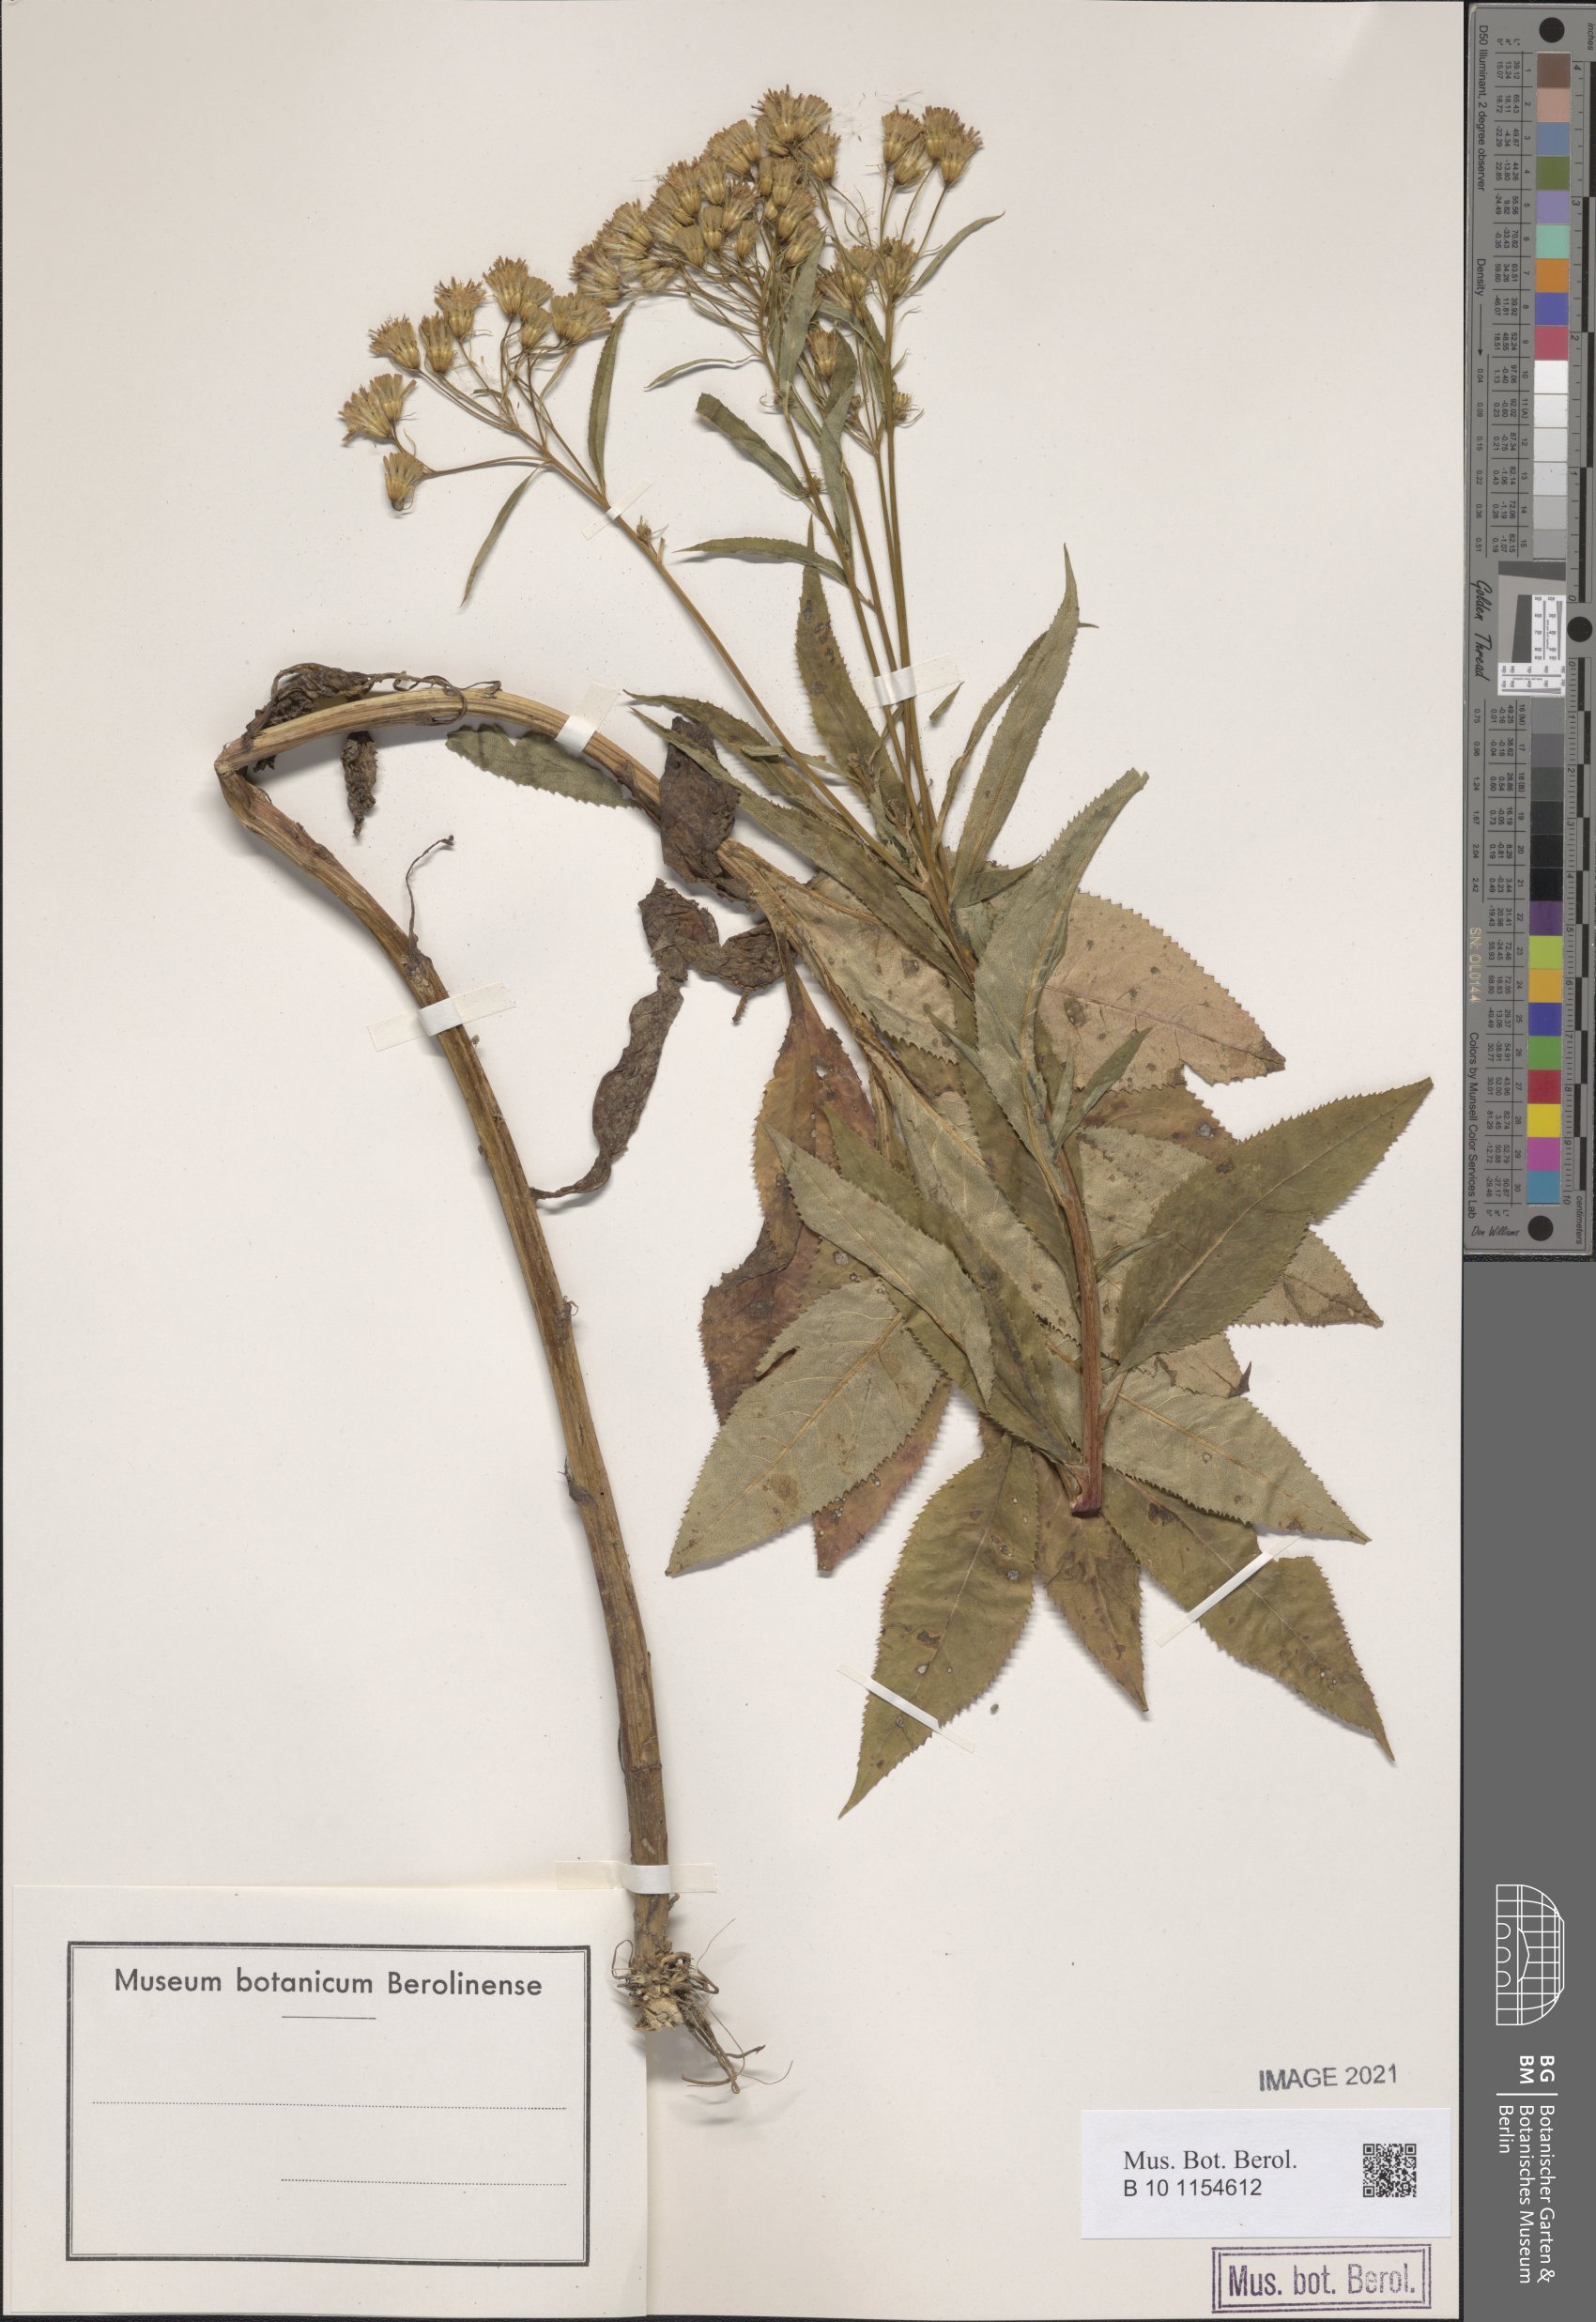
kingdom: Plantae
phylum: Tracheophyta
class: Magnoliopsida
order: Asterales
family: Asteraceae
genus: Senecio
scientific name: Senecio cacaliaster
